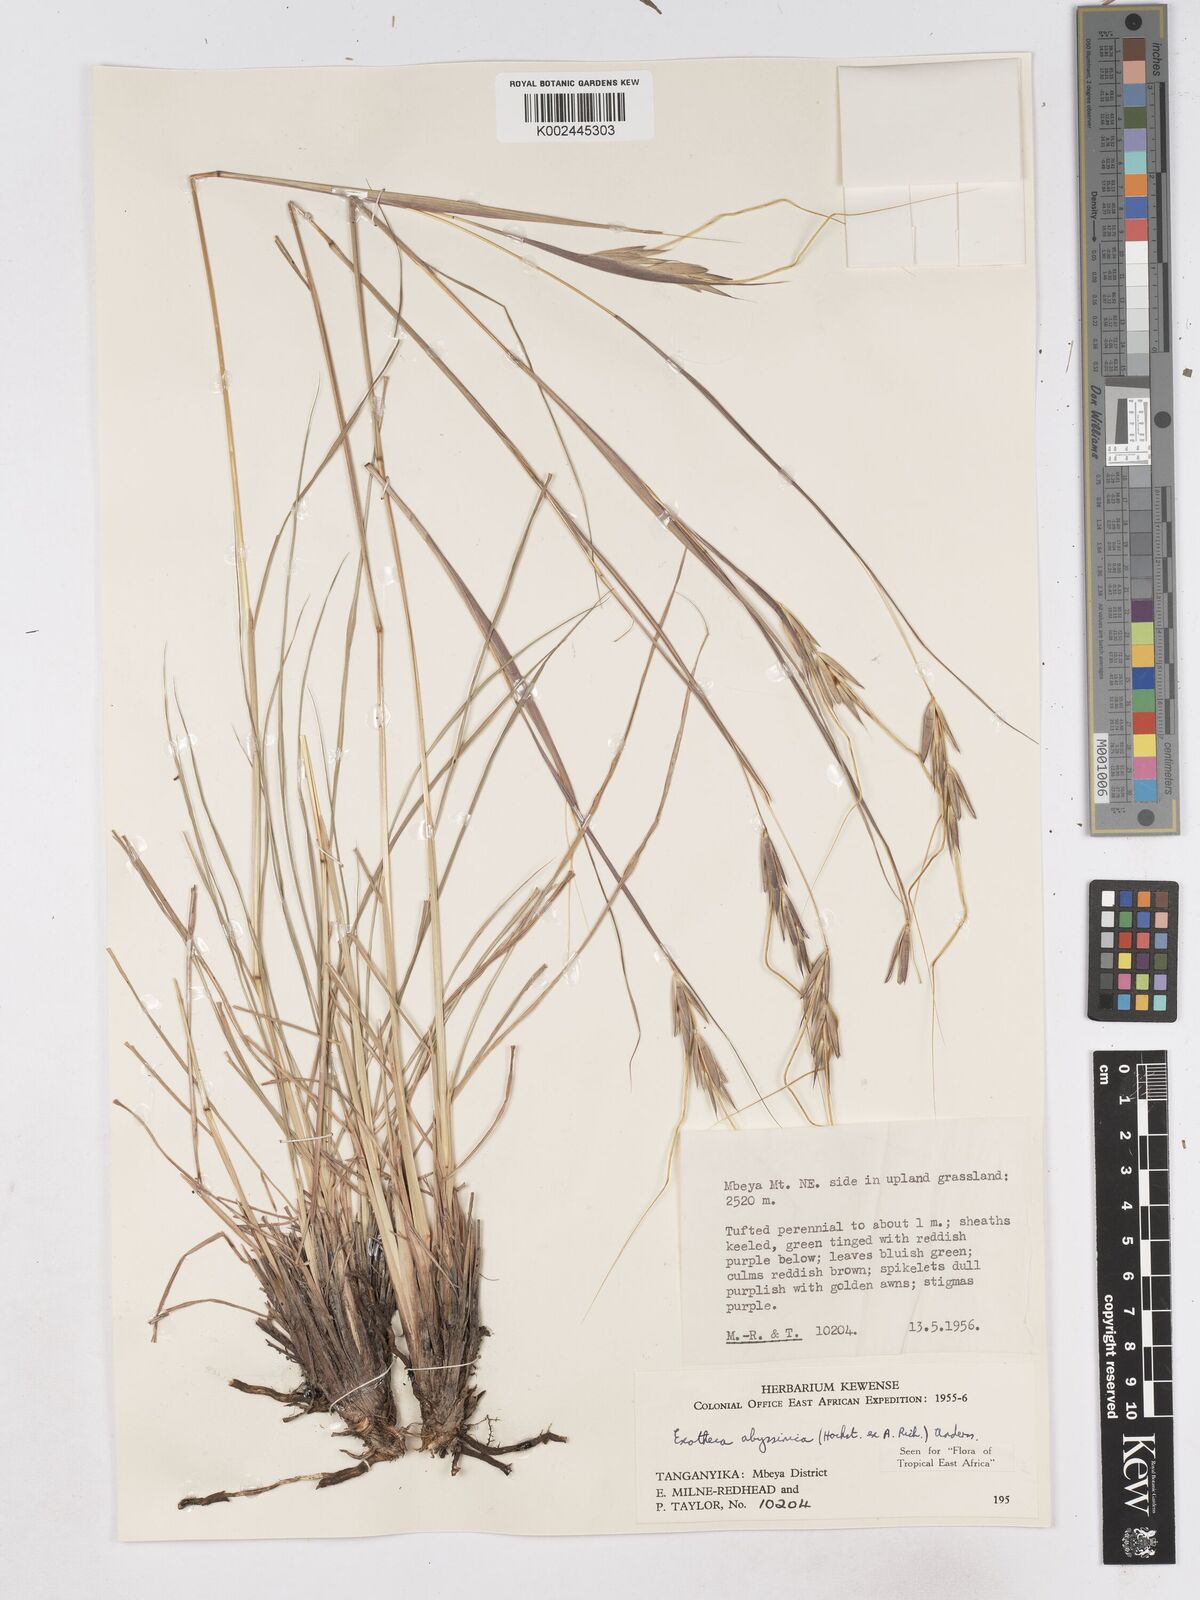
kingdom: Plantae
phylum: Tracheophyta
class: Liliopsida
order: Poales
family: Poaceae
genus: Exotheca
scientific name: Exotheca abyssinica
